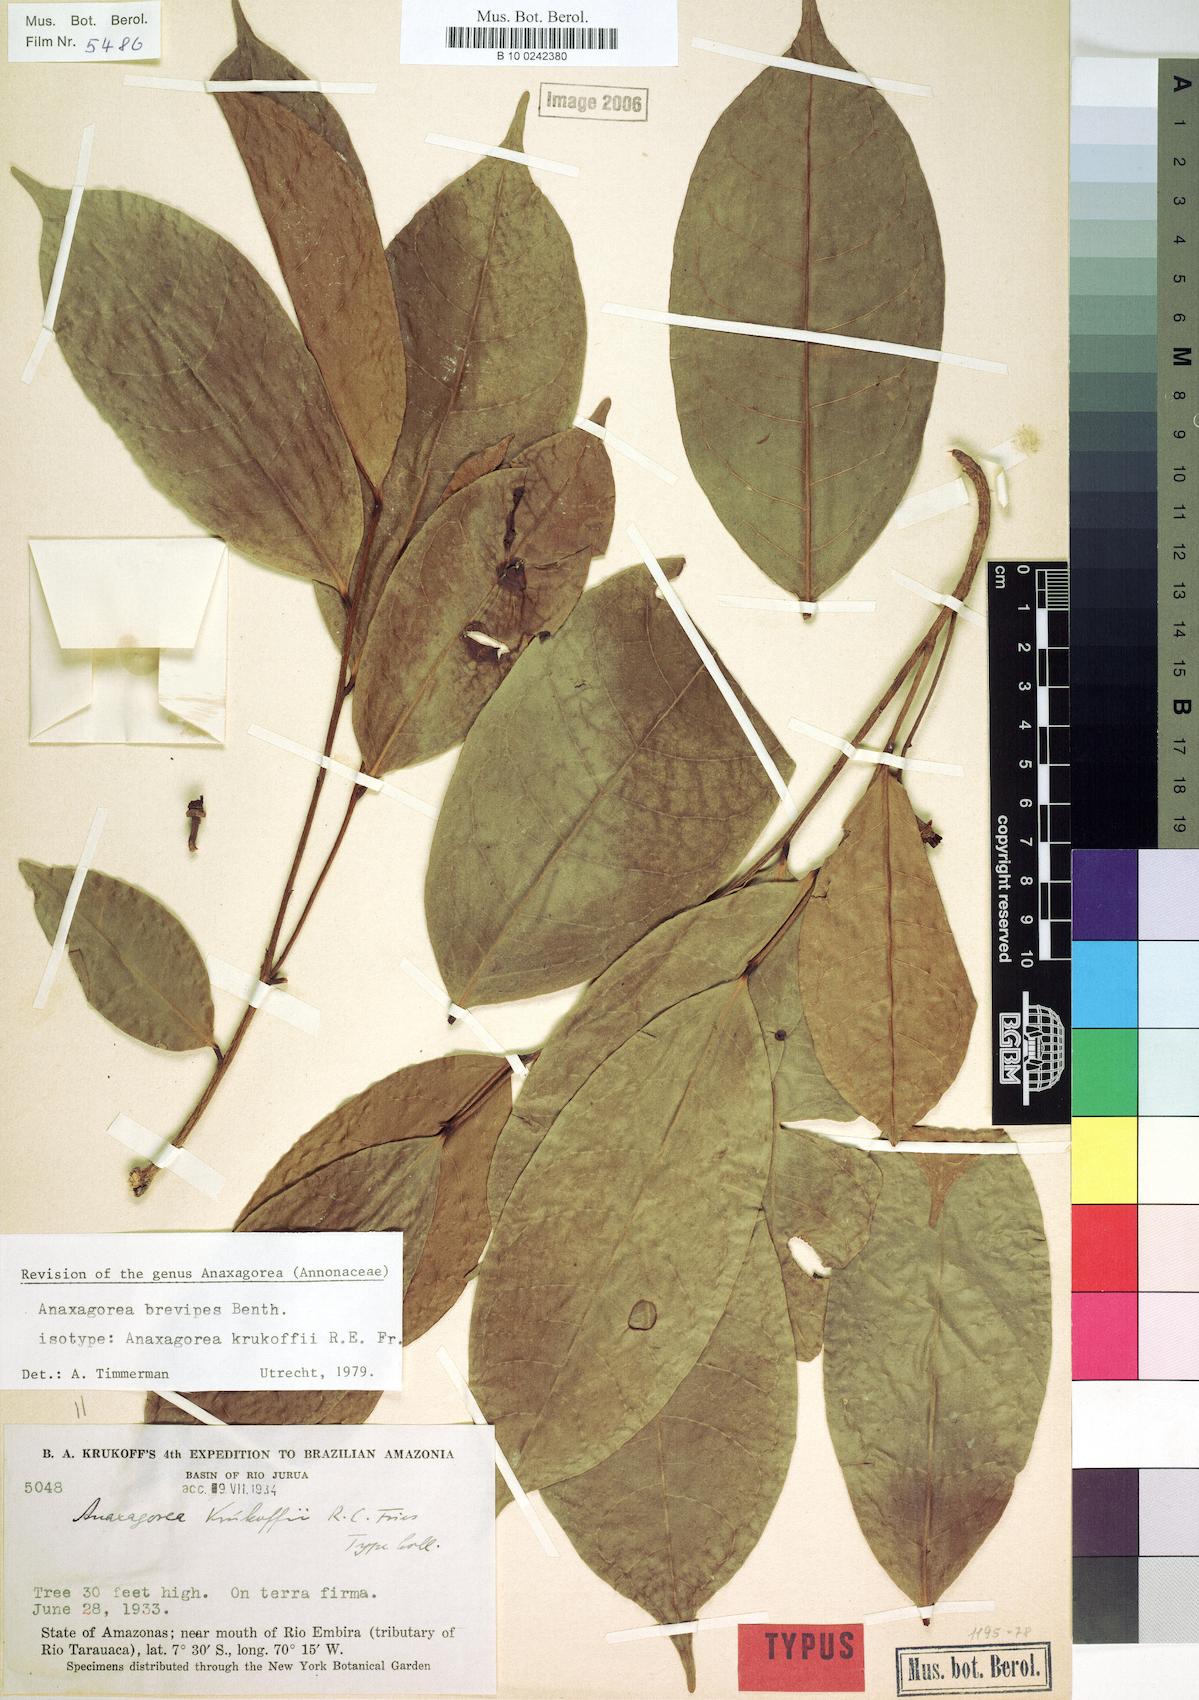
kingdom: Plantae
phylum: Tracheophyta
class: Magnoliopsida
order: Magnoliales
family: Annonaceae
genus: Anaxagorea
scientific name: Anaxagorea brevipes
